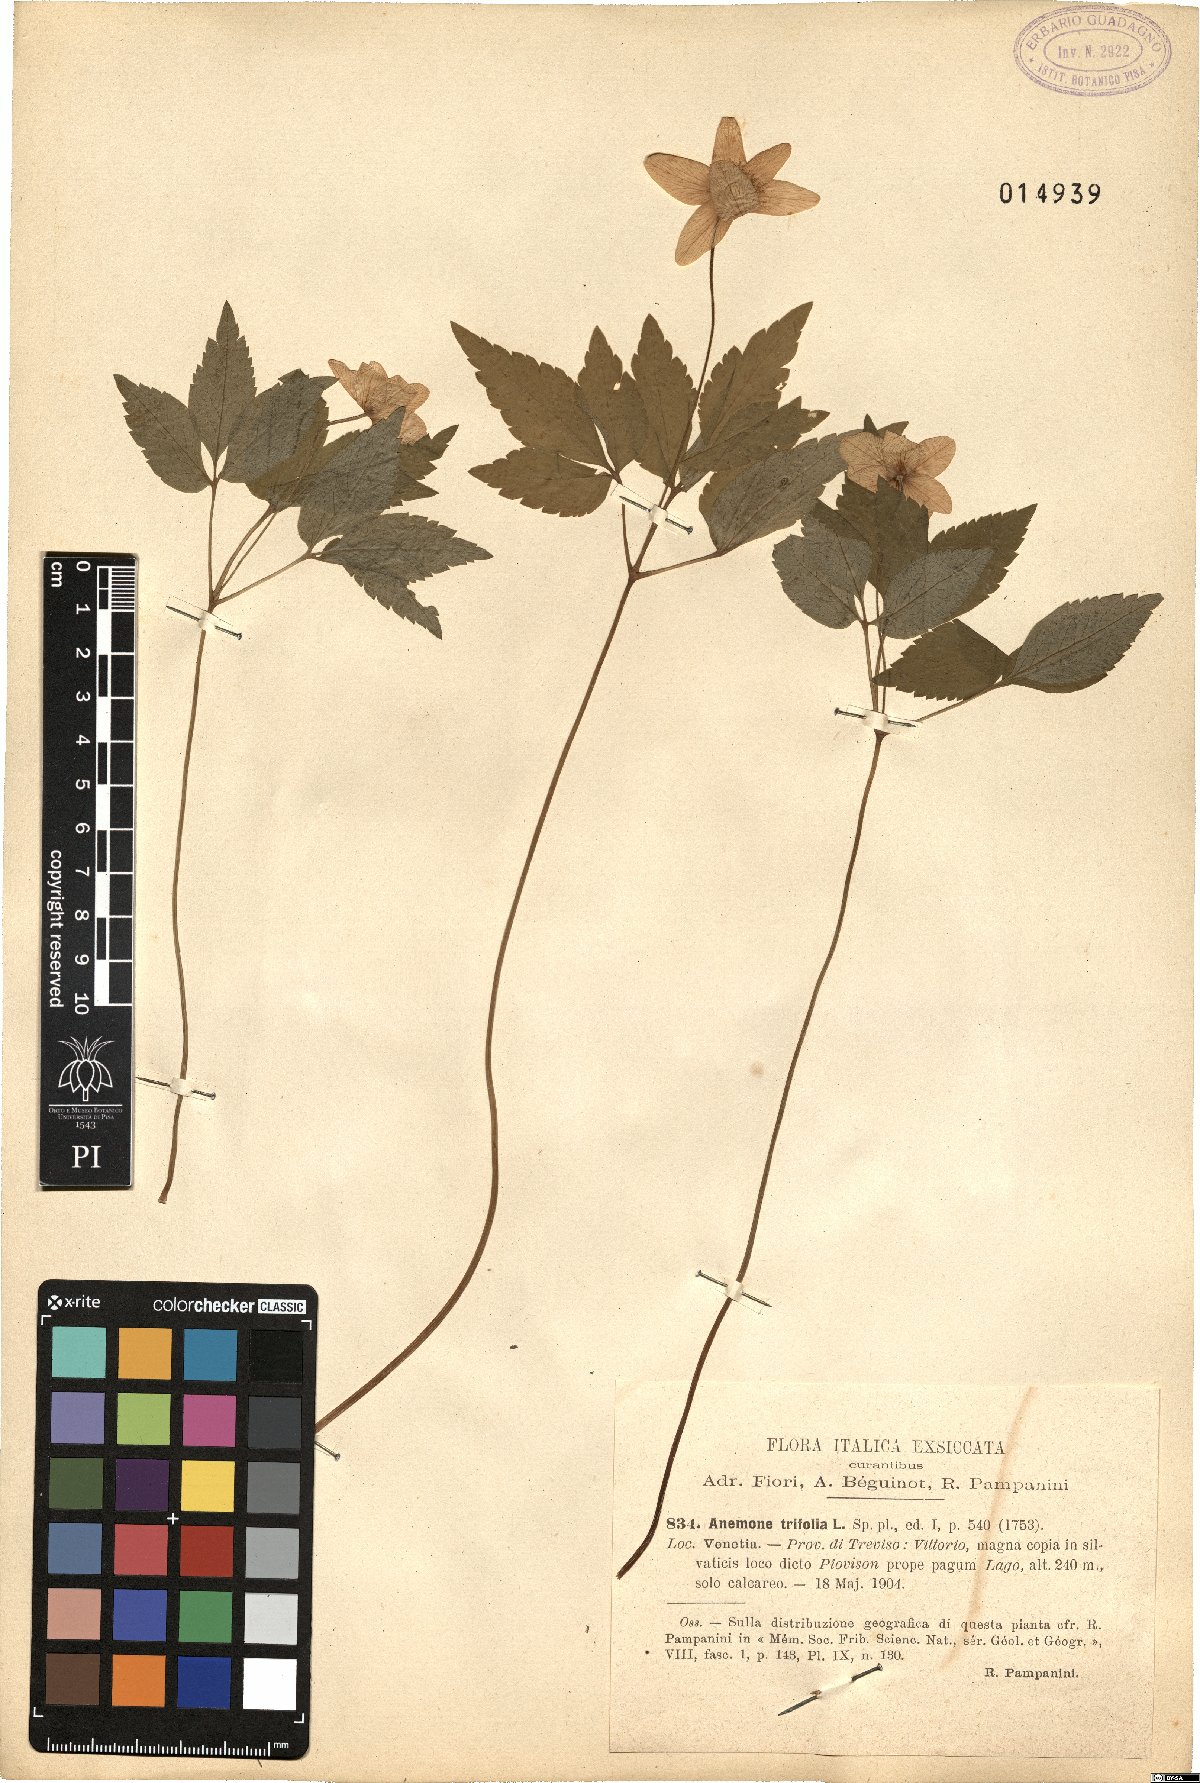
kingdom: Plantae
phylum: Tracheophyta
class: Magnoliopsida
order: Ranunculales
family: Ranunculaceae
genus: Anemone
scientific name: Anemone trifolia
